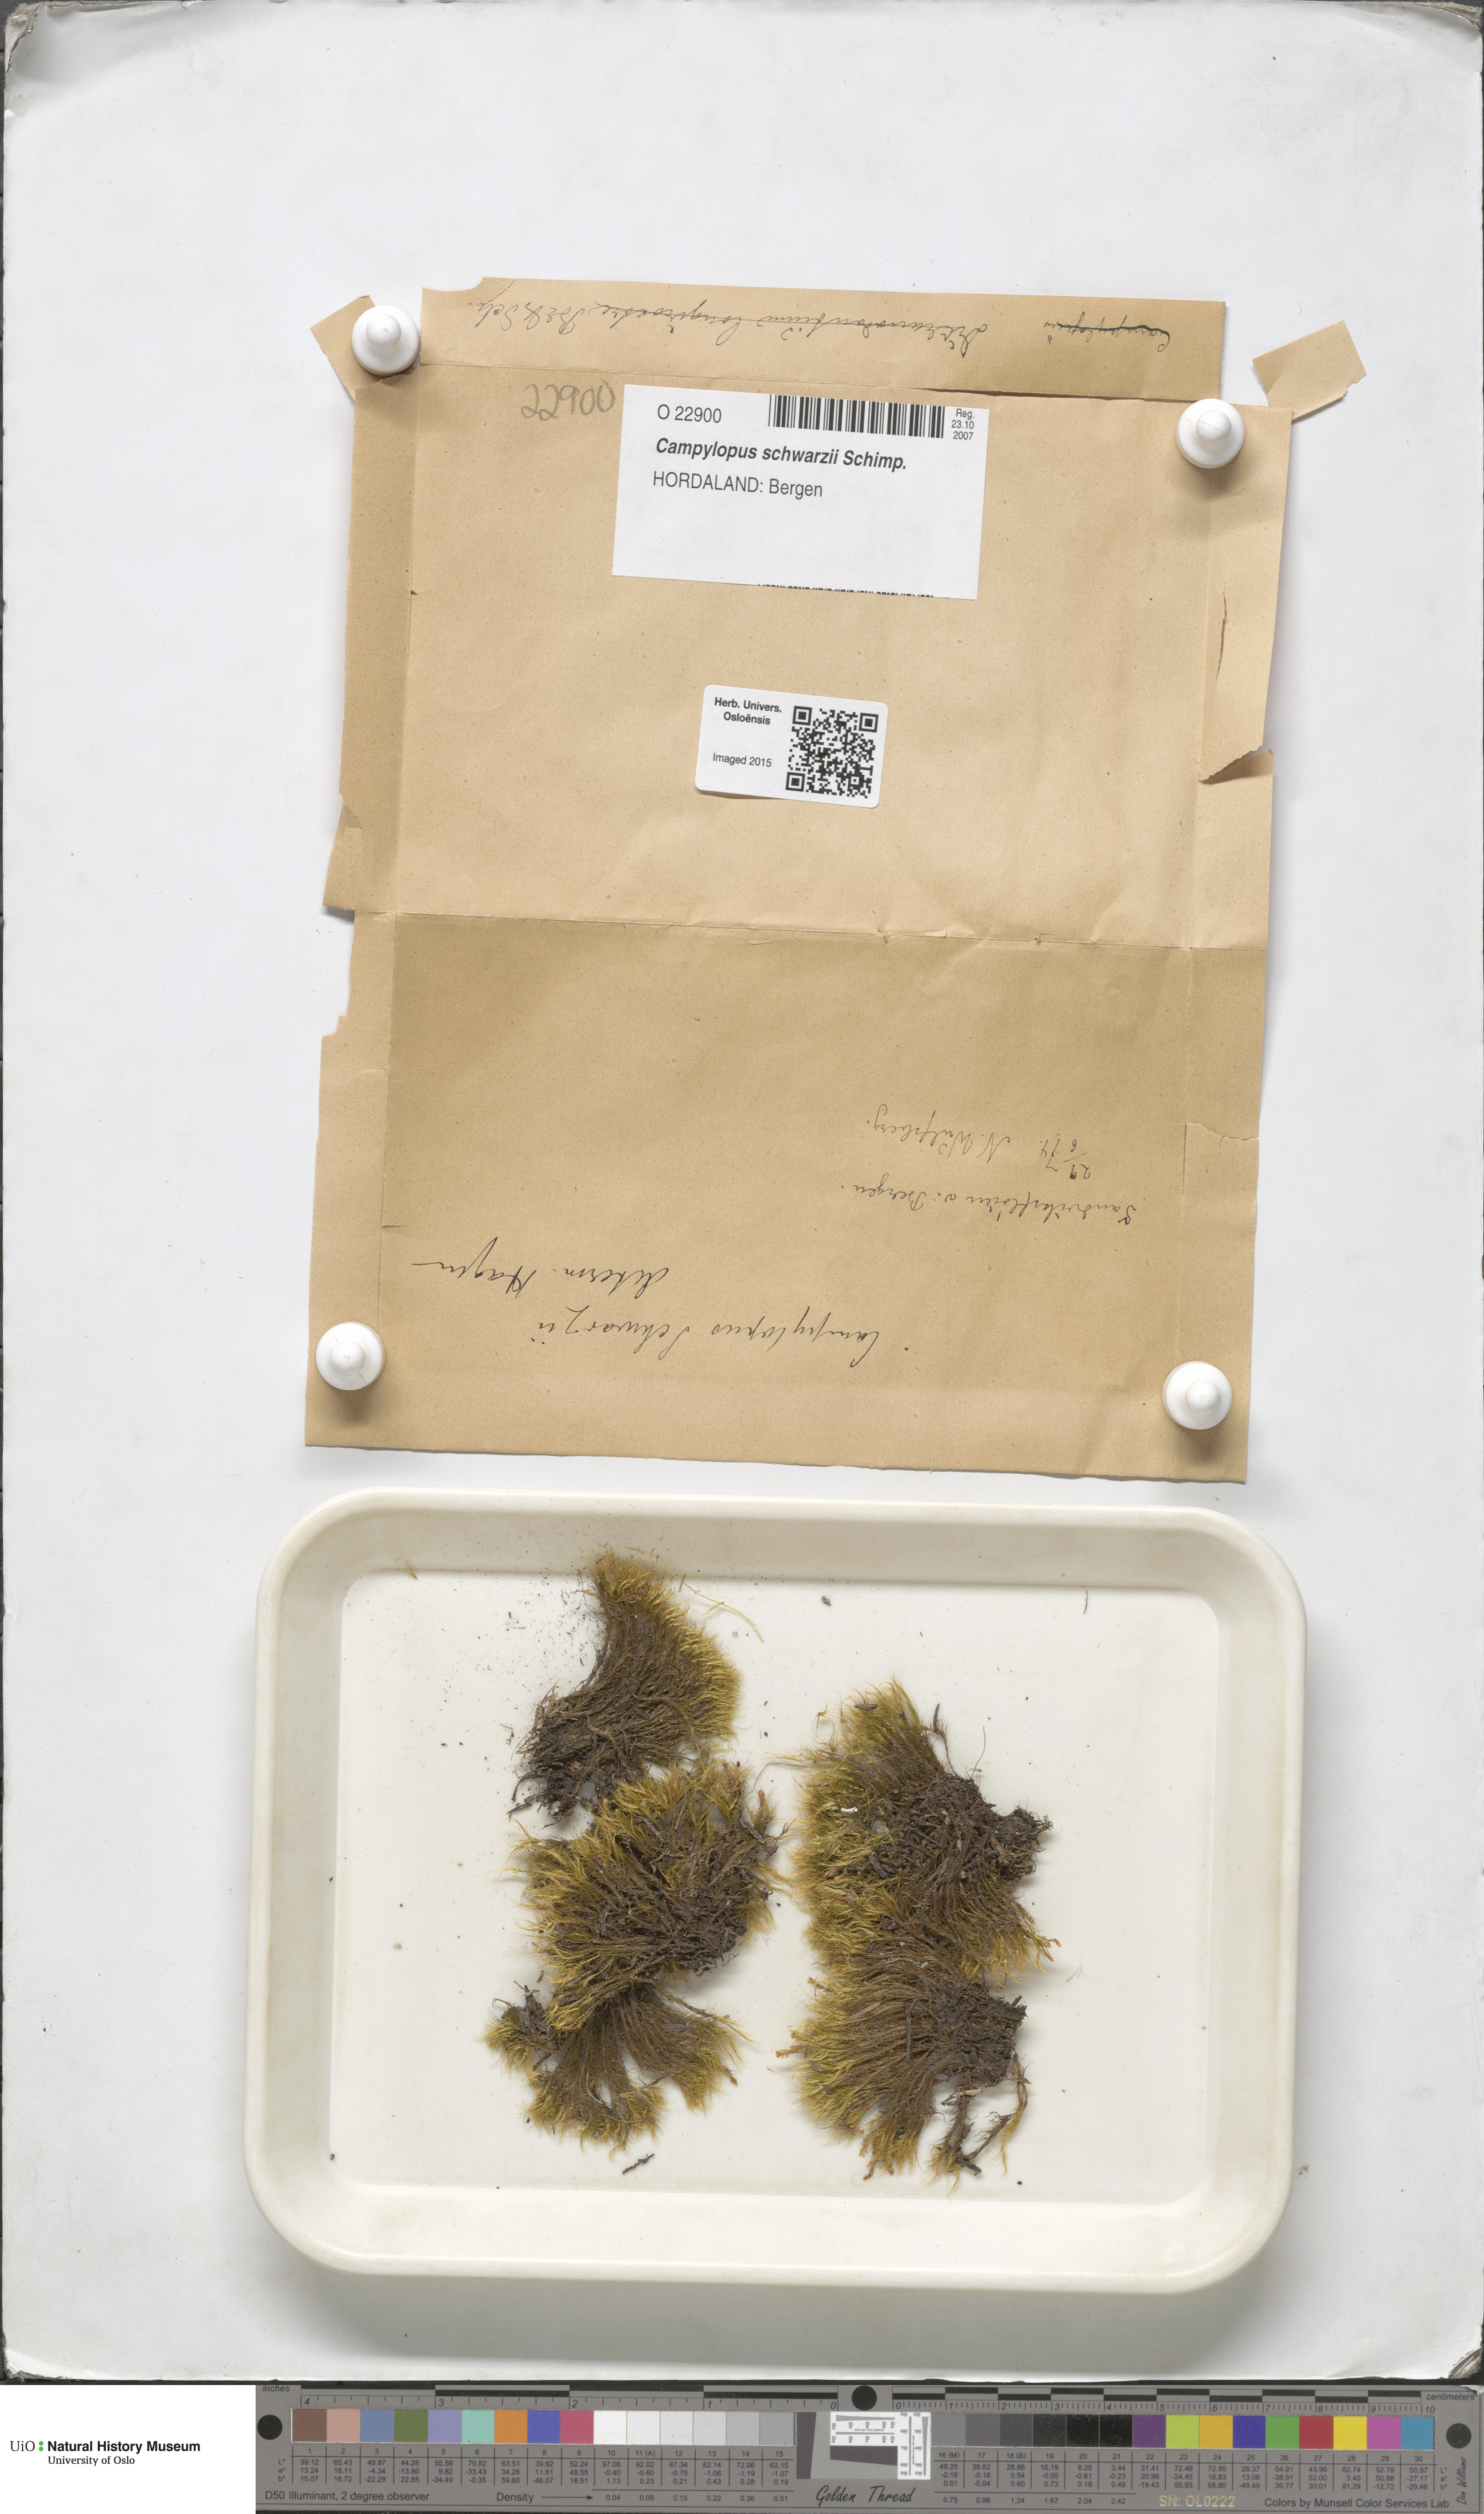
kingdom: Plantae
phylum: Bryophyta
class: Bryopsida
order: Dicranales
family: Leucobryaceae
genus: Campylopus
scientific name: Campylopus gracilis
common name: Schwarz's swan-neck moss
